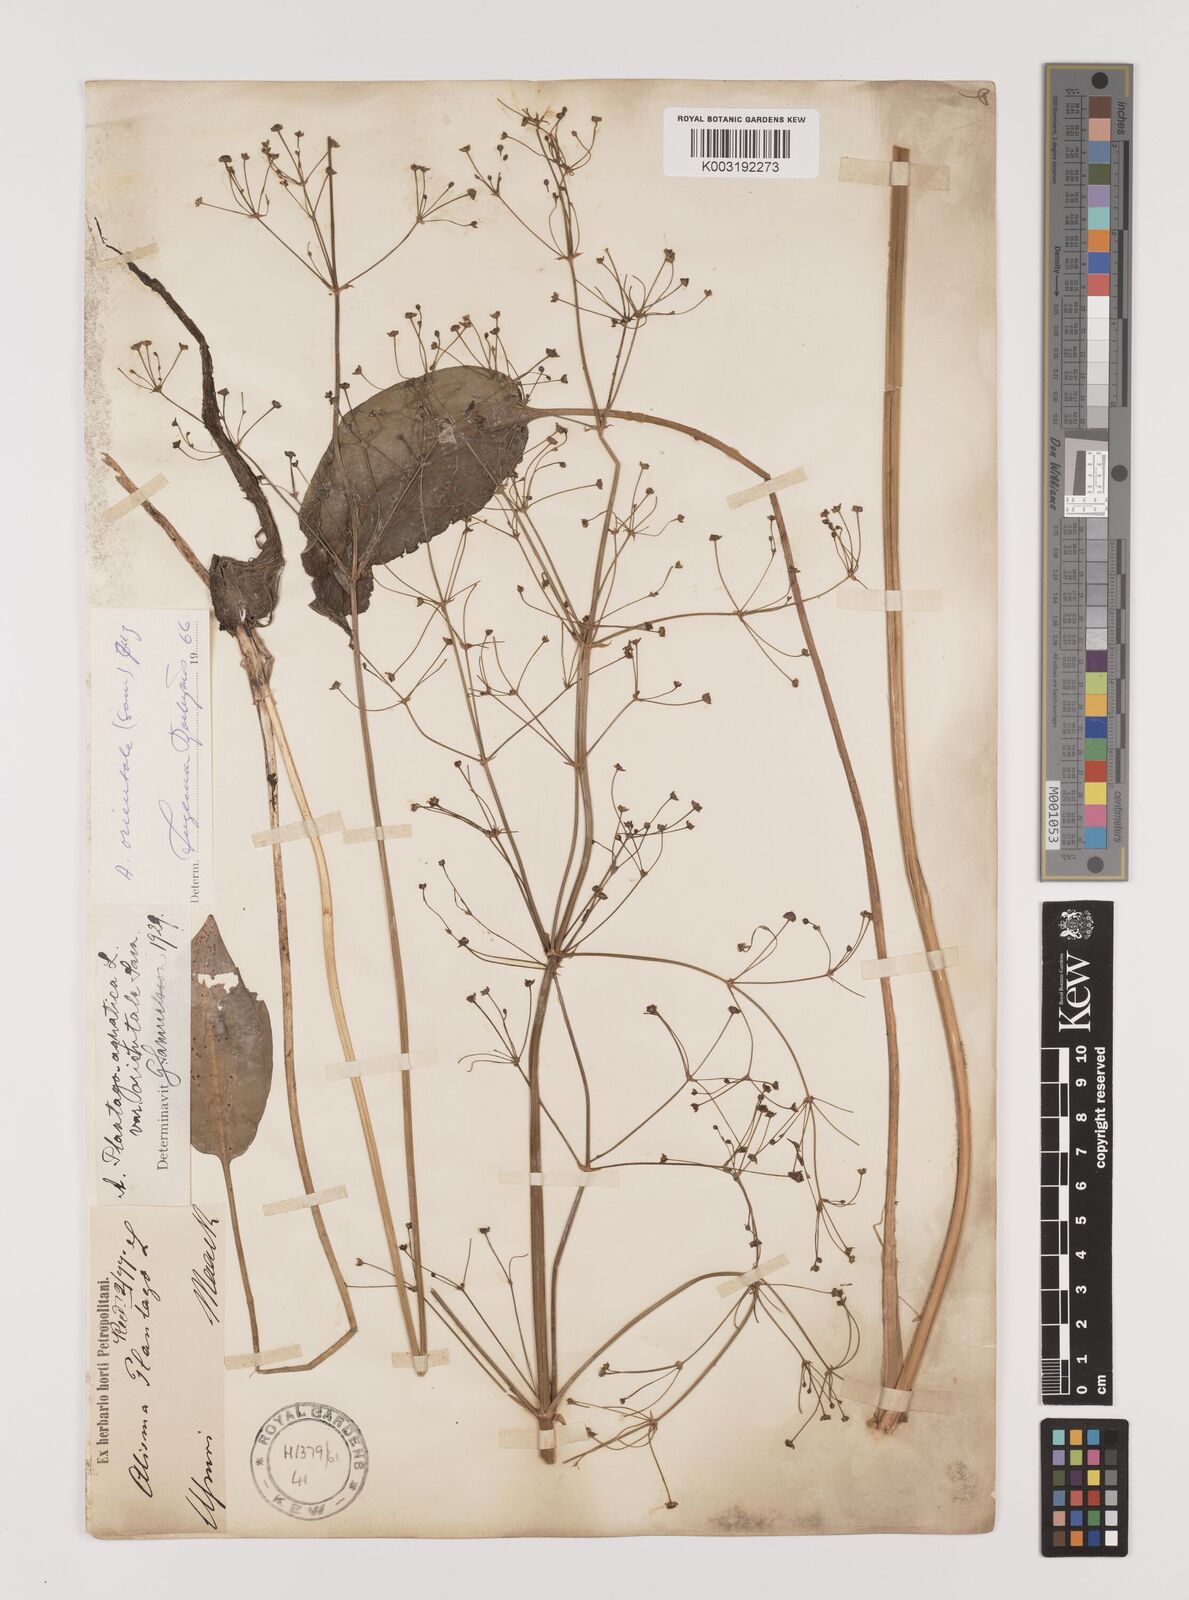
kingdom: Plantae
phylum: Tracheophyta
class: Liliopsida
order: Alismatales
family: Alismataceae
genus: Alisma
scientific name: Alisma plantago-aquatica
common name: Water-plantain
